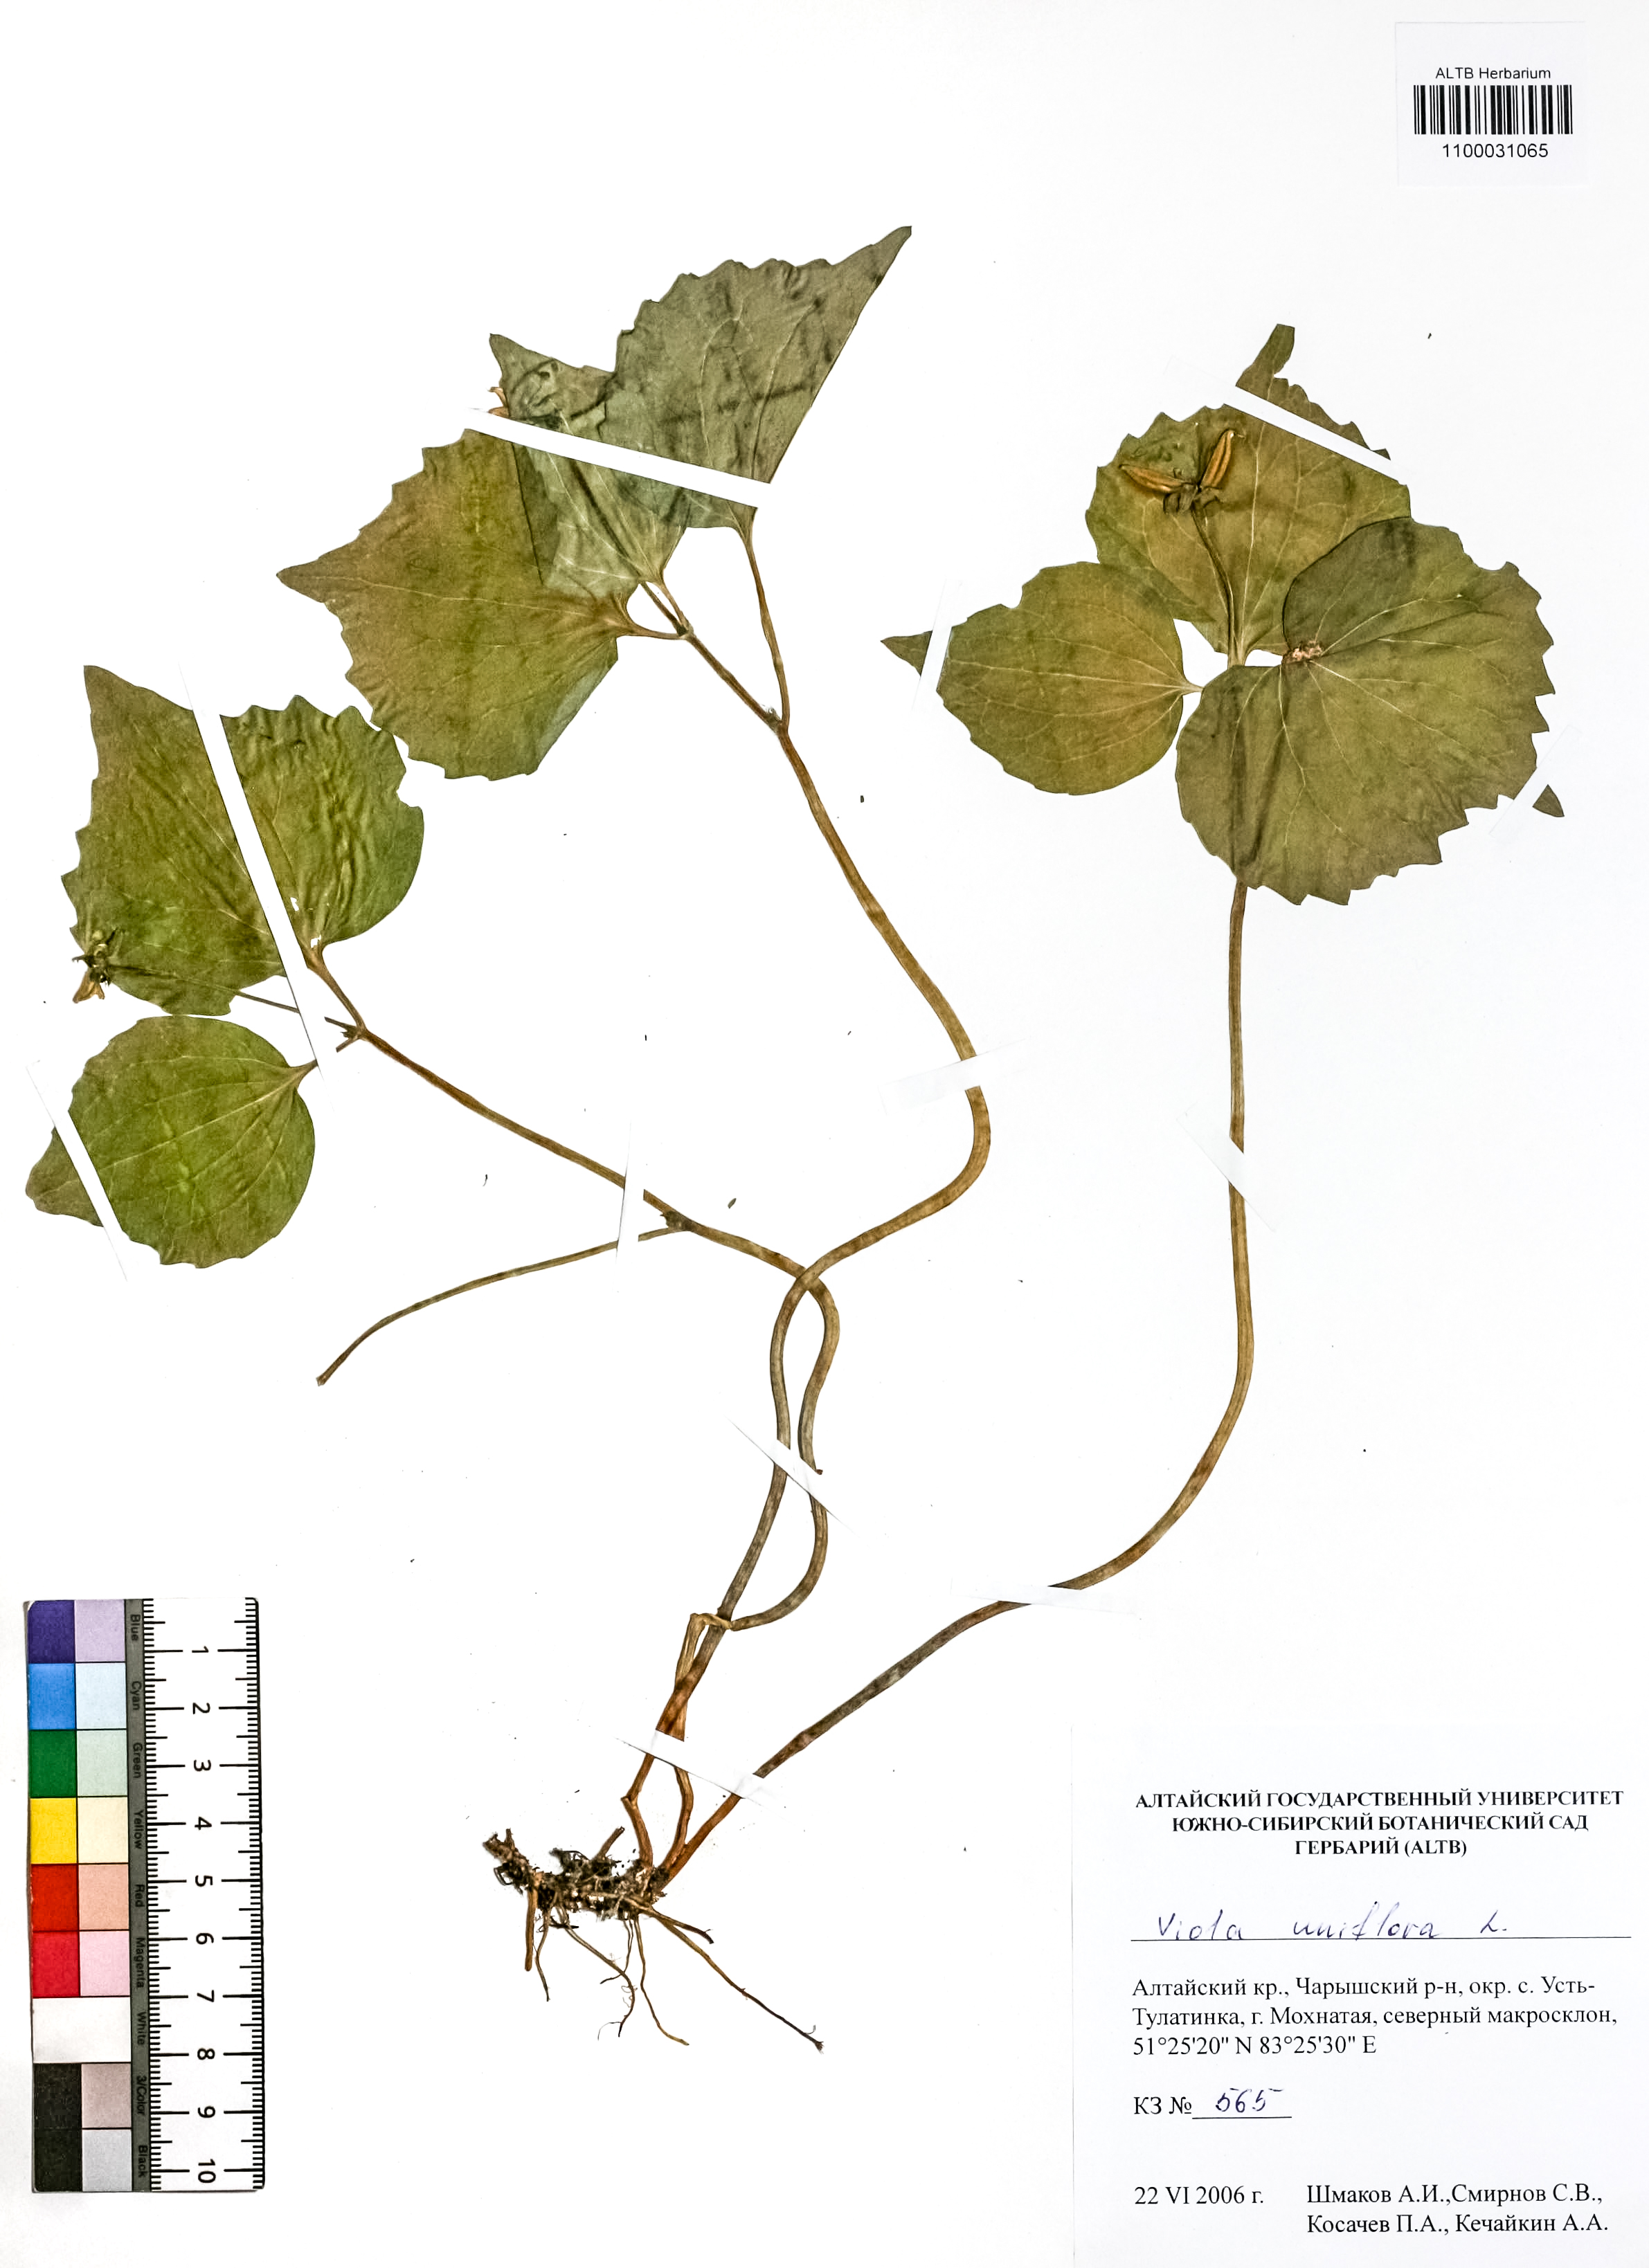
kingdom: Plantae
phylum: Tracheophyta
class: Magnoliopsida
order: Malpighiales
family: Violaceae
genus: Viola
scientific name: Viola uniflora
